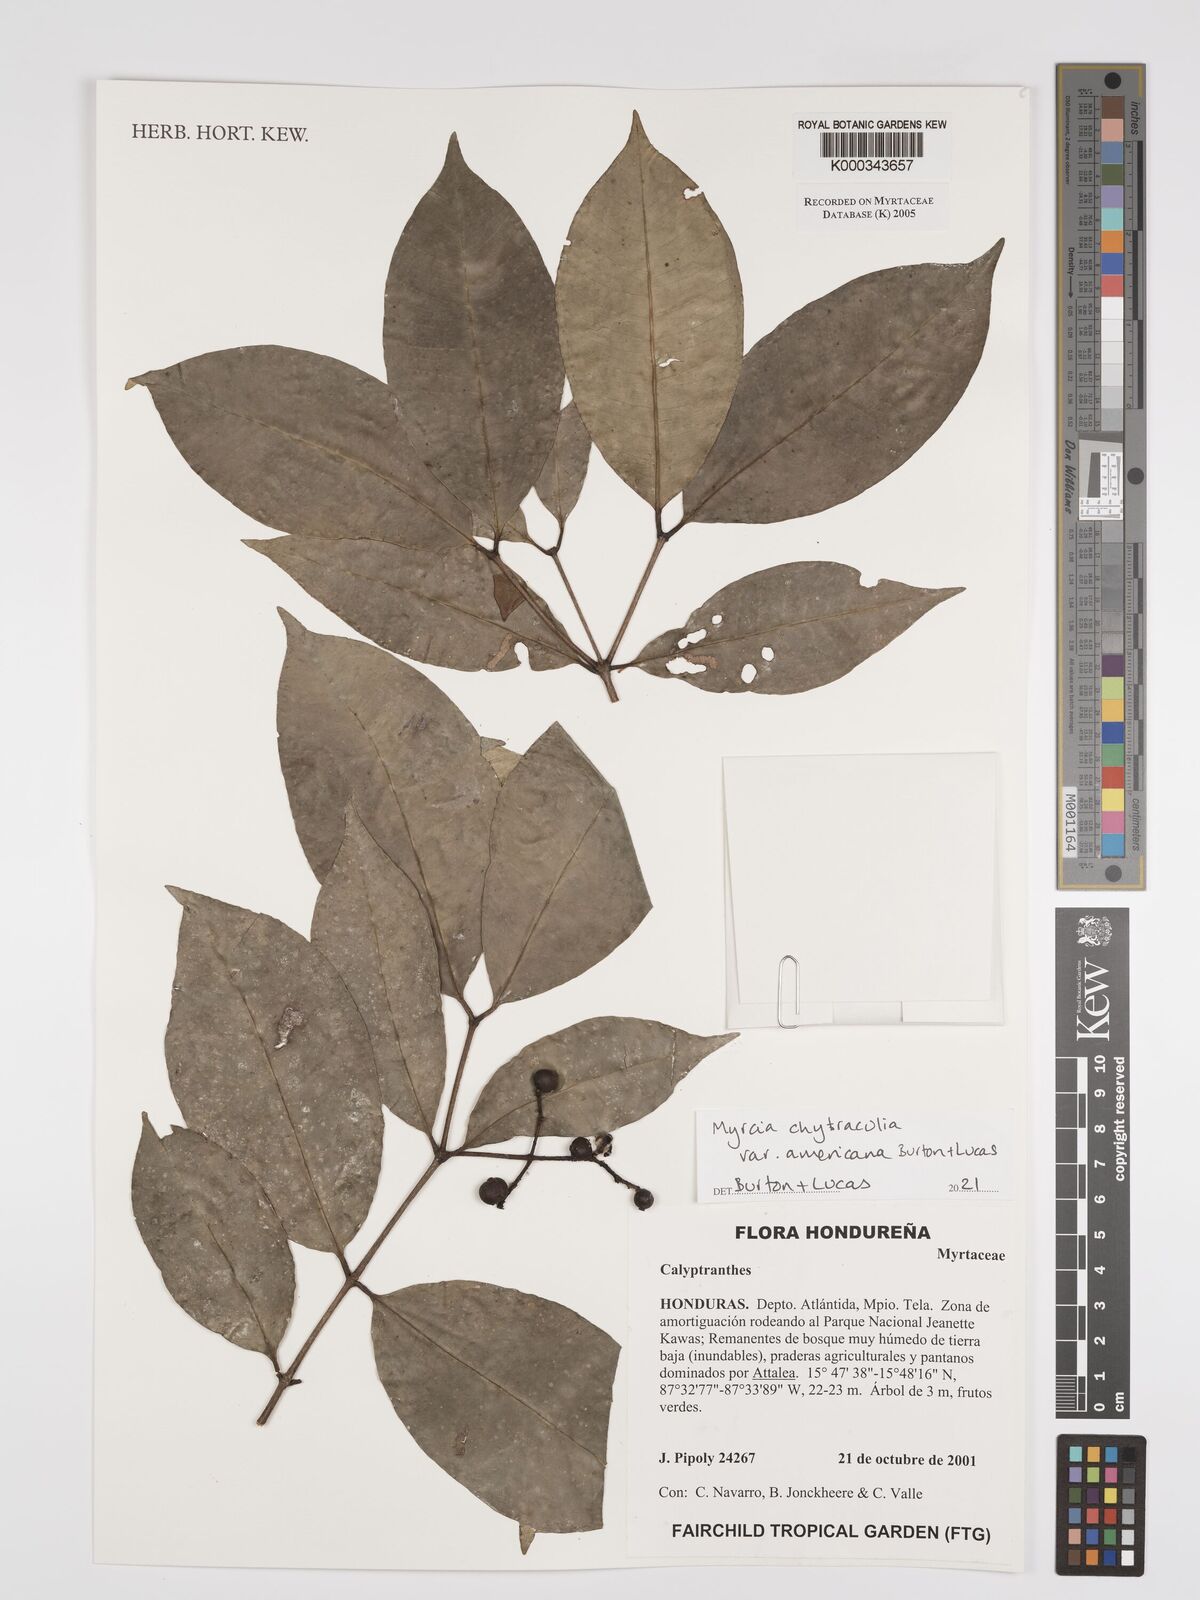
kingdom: Plantae
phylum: Tracheophyta
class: Magnoliopsida
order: Myrtales
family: Myrtaceae
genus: Calyptranthes
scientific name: Calyptranthes
